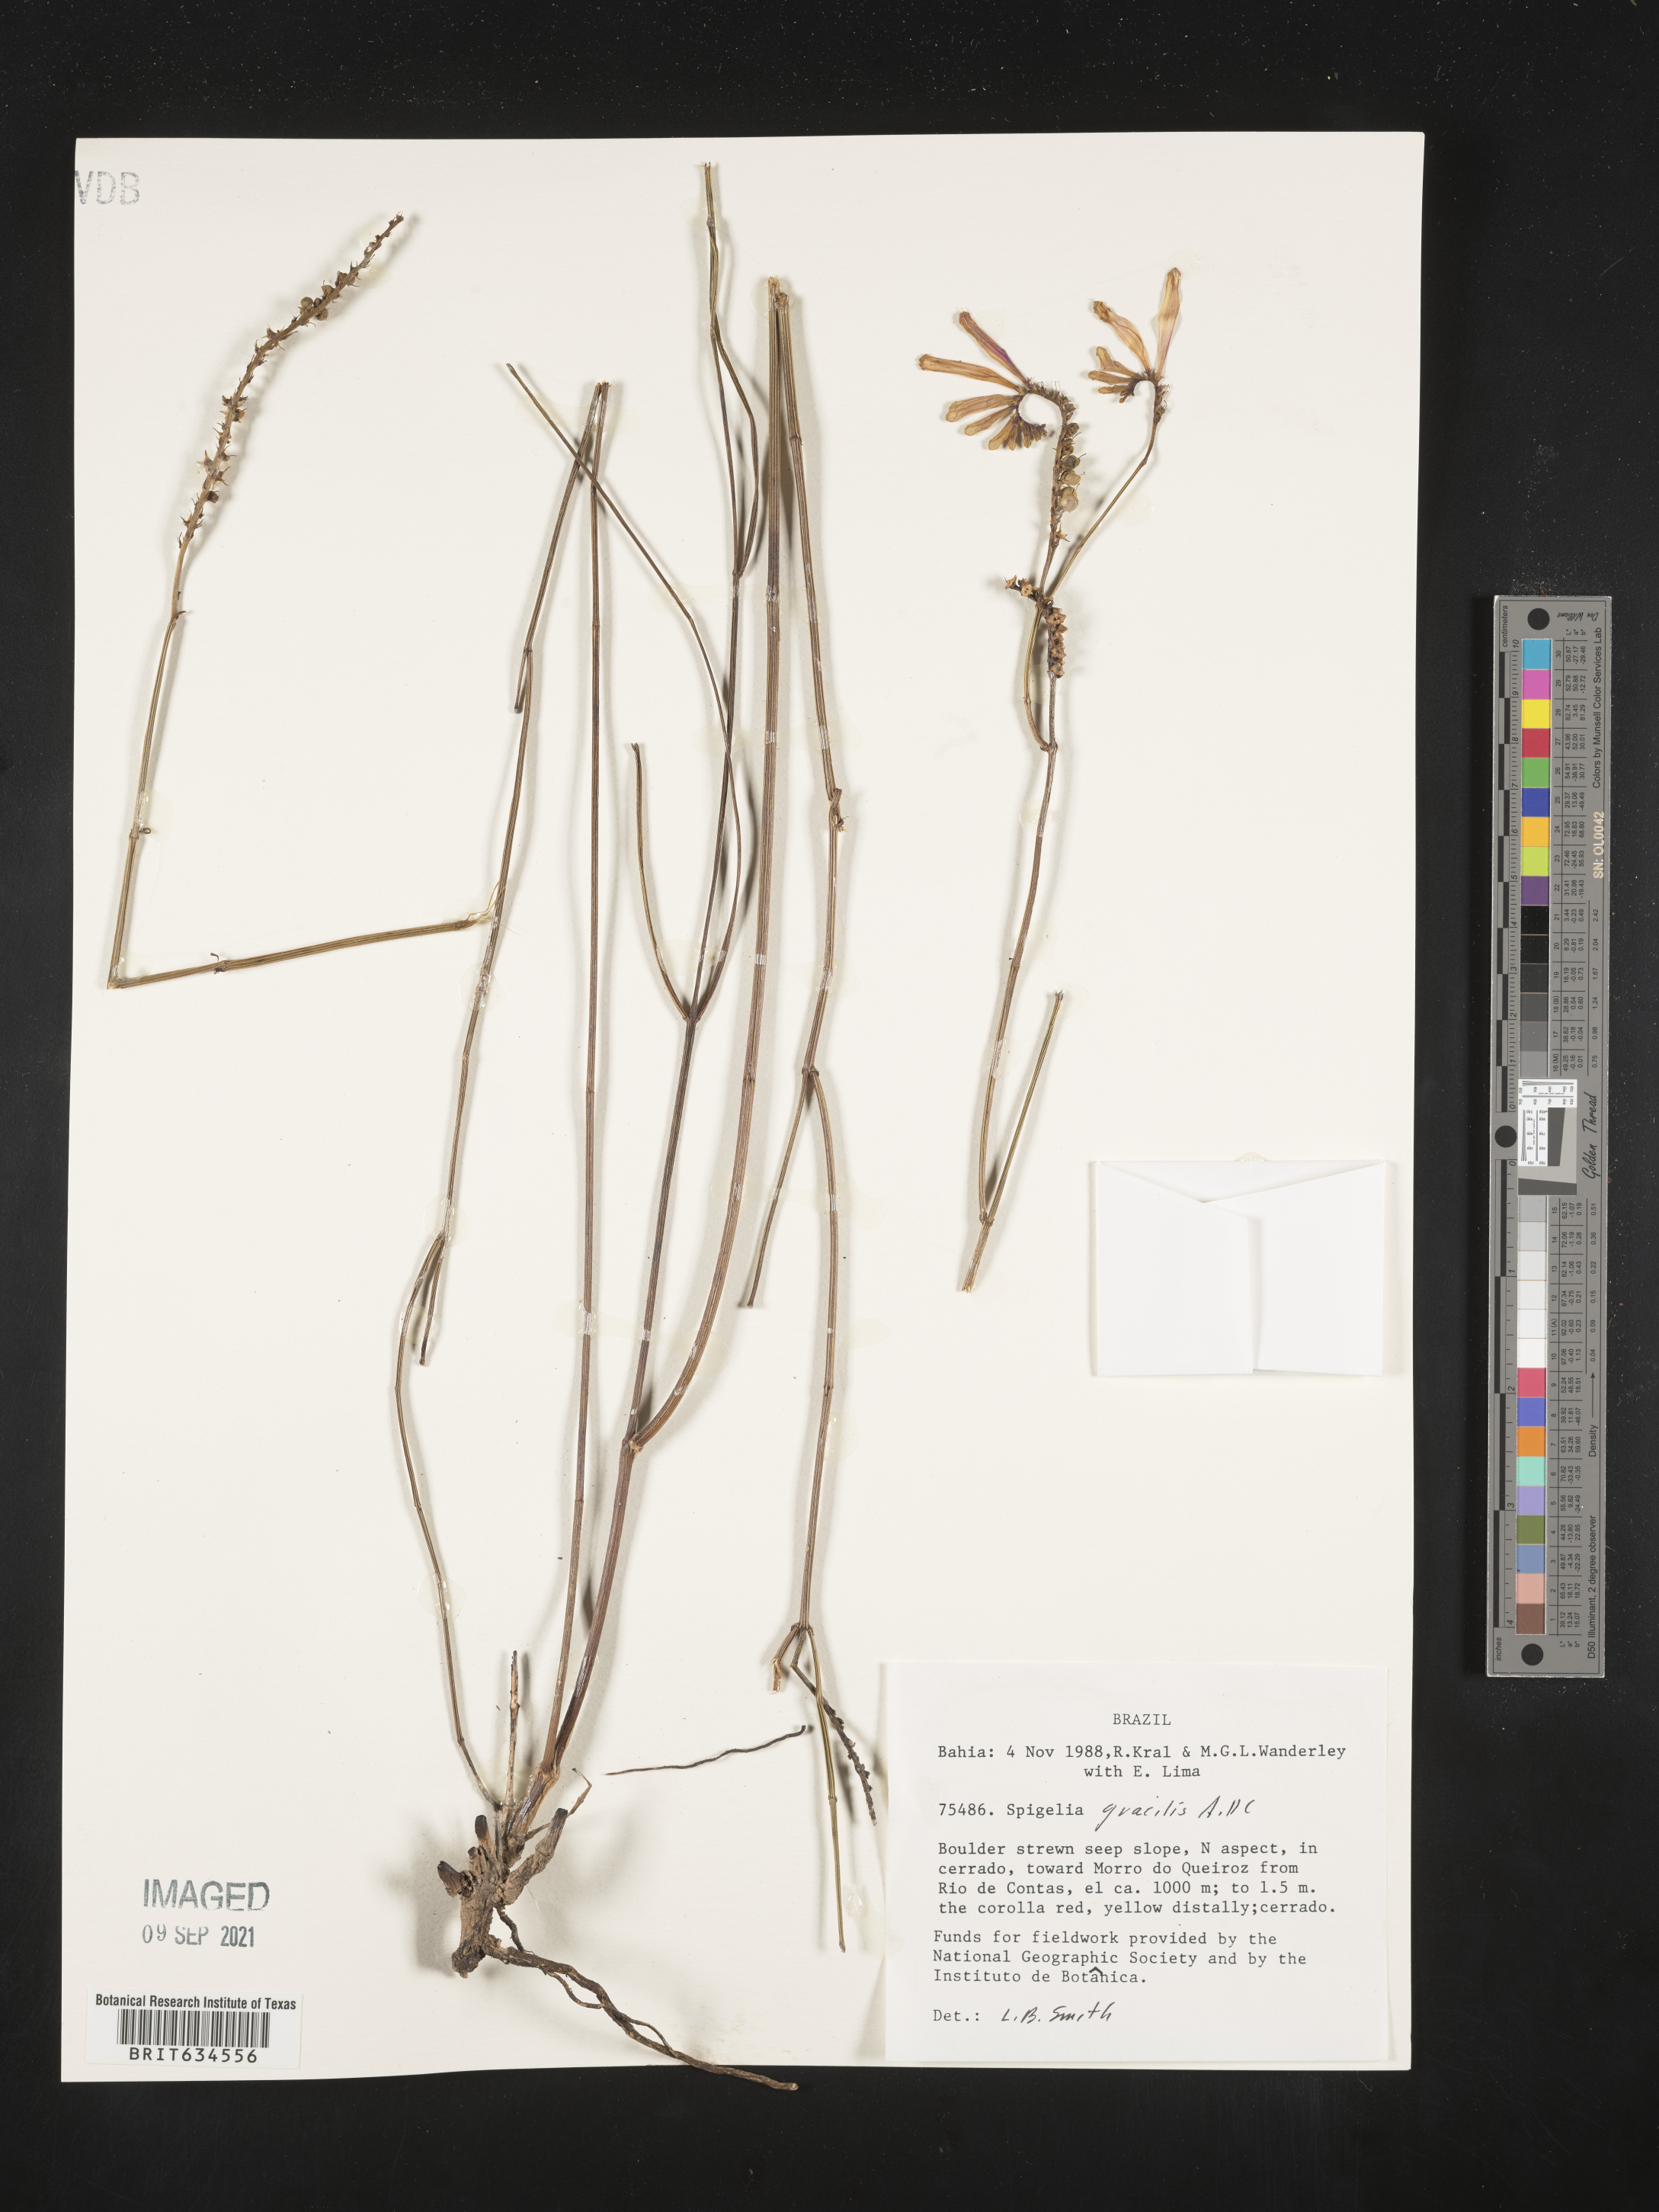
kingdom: Plantae
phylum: Tracheophyta
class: Magnoliopsida
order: Gentianales
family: Loganiaceae
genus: Spigelia
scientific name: Spigelia
